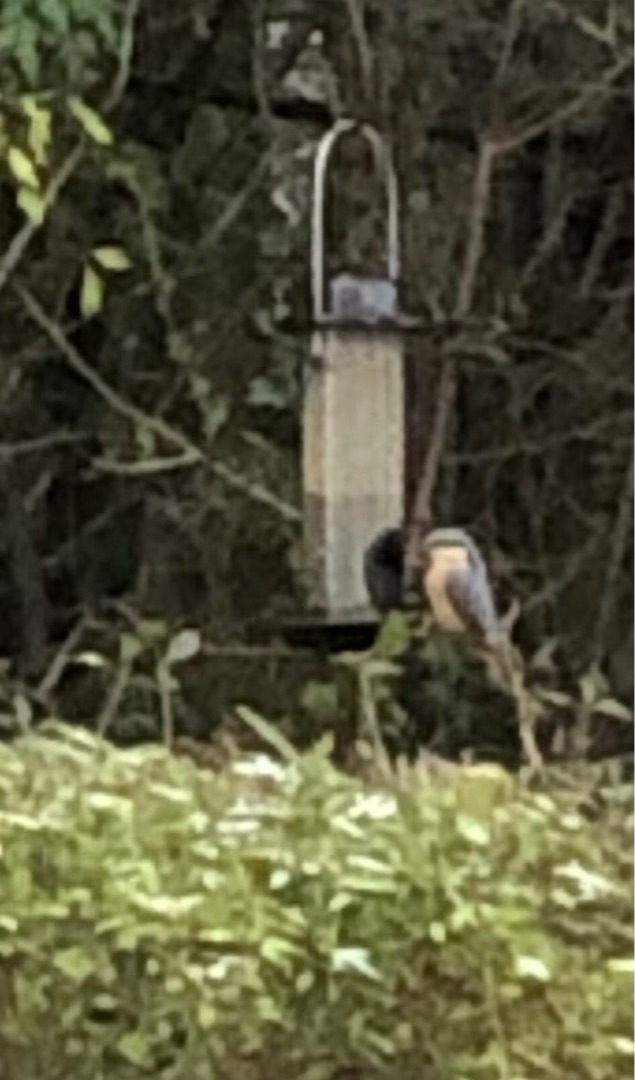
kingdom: Animalia
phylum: Chordata
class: Aves
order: Passeriformes
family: Sittidae
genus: Sitta
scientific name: Sitta europaea
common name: Spætmejse
